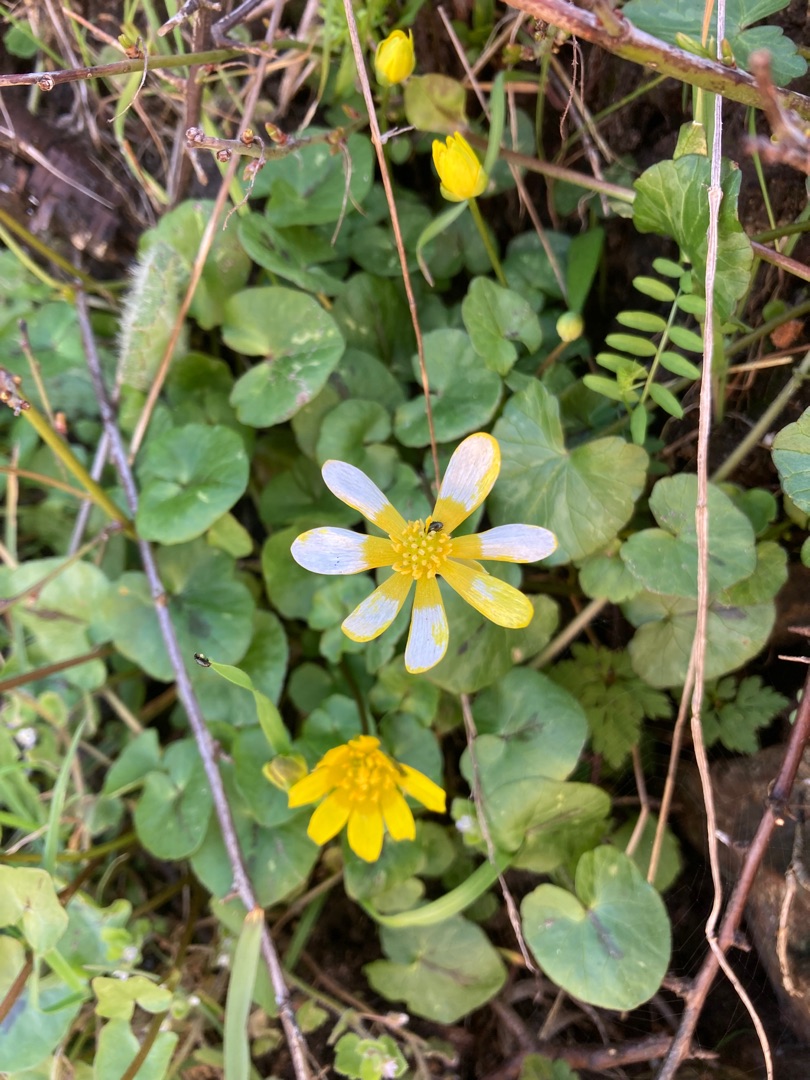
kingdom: Plantae
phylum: Tracheophyta
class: Magnoliopsida
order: Ranunculales
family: Ranunculaceae
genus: Ficaria
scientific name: Ficaria verna
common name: Vorterod
